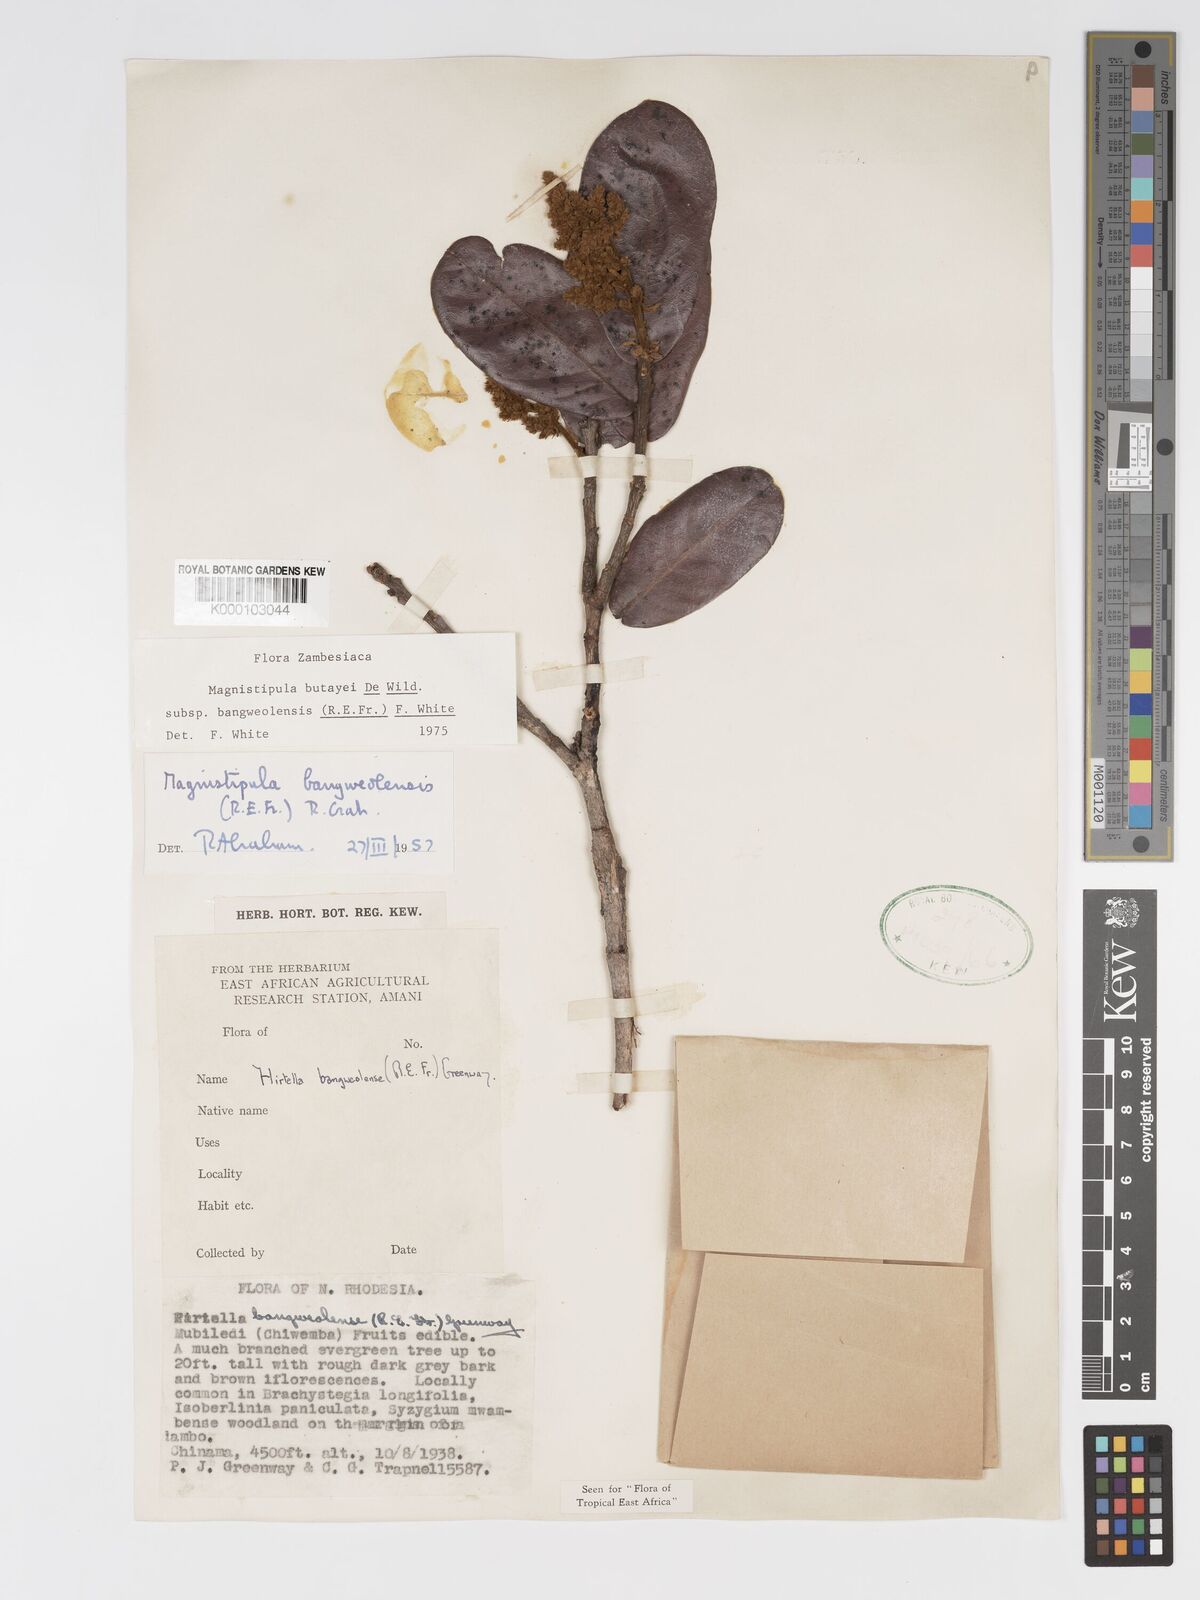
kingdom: Plantae
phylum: Tracheophyta
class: Magnoliopsida
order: Malpighiales
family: Chrysobalanaceae
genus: Magnistipula
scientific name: Magnistipula butayei
